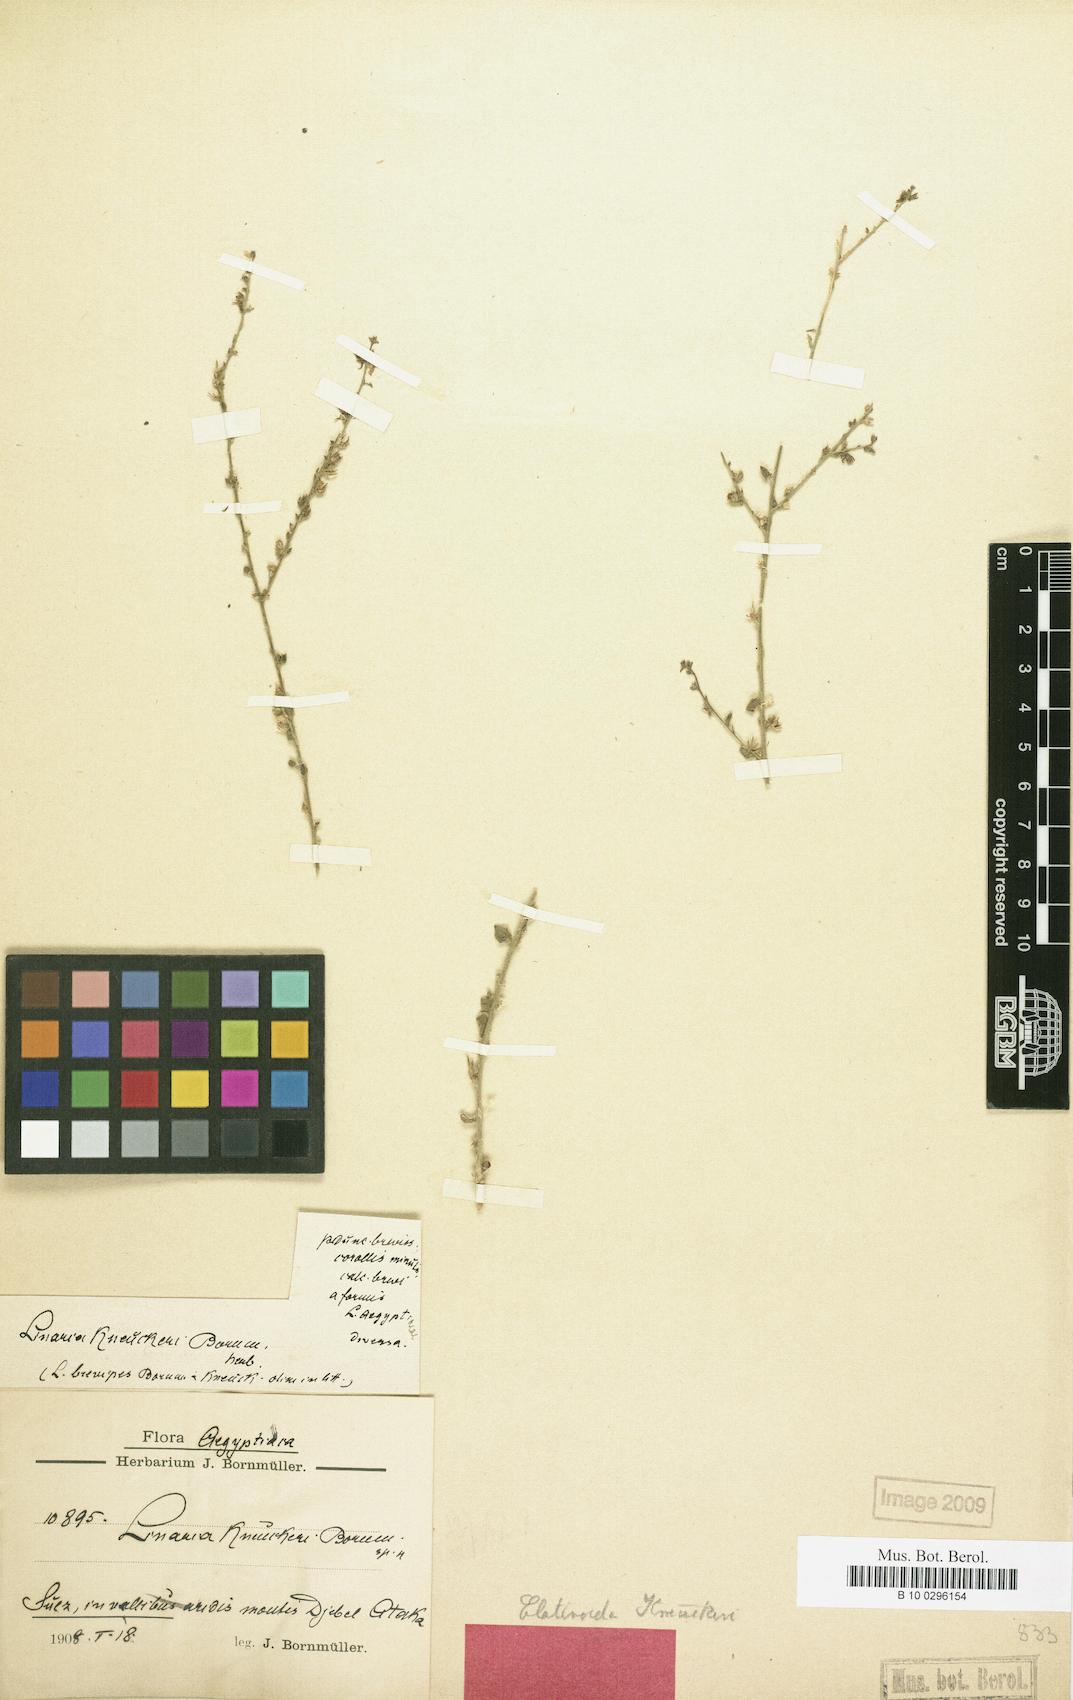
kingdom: Plantae
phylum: Tracheophyta
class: Magnoliopsida
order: Lamiales
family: Plantaginaceae
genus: Nanorrhinum
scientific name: Nanorrhinum acerbianum
